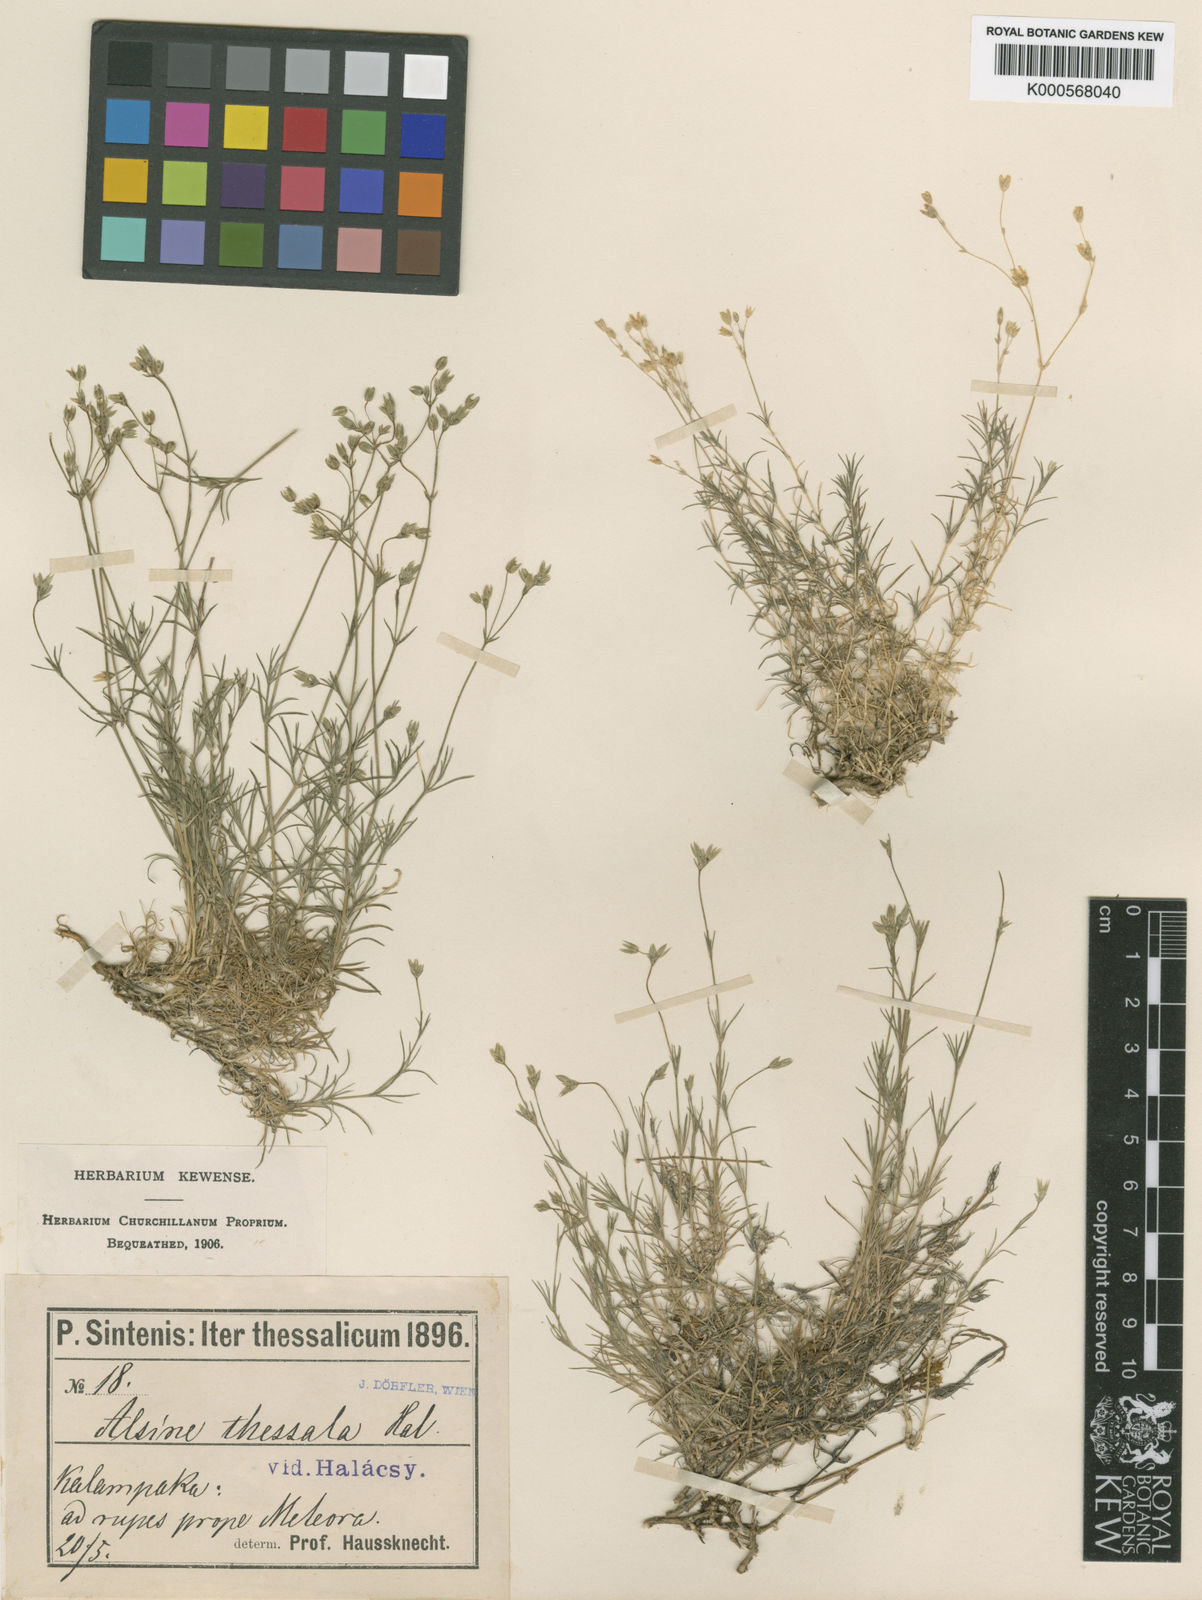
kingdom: Plantae
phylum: Tracheophyta
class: Magnoliopsida
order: Caryophyllales
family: Caryophyllaceae
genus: Sabulina
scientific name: Sabulina verna
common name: Spring sandwort
